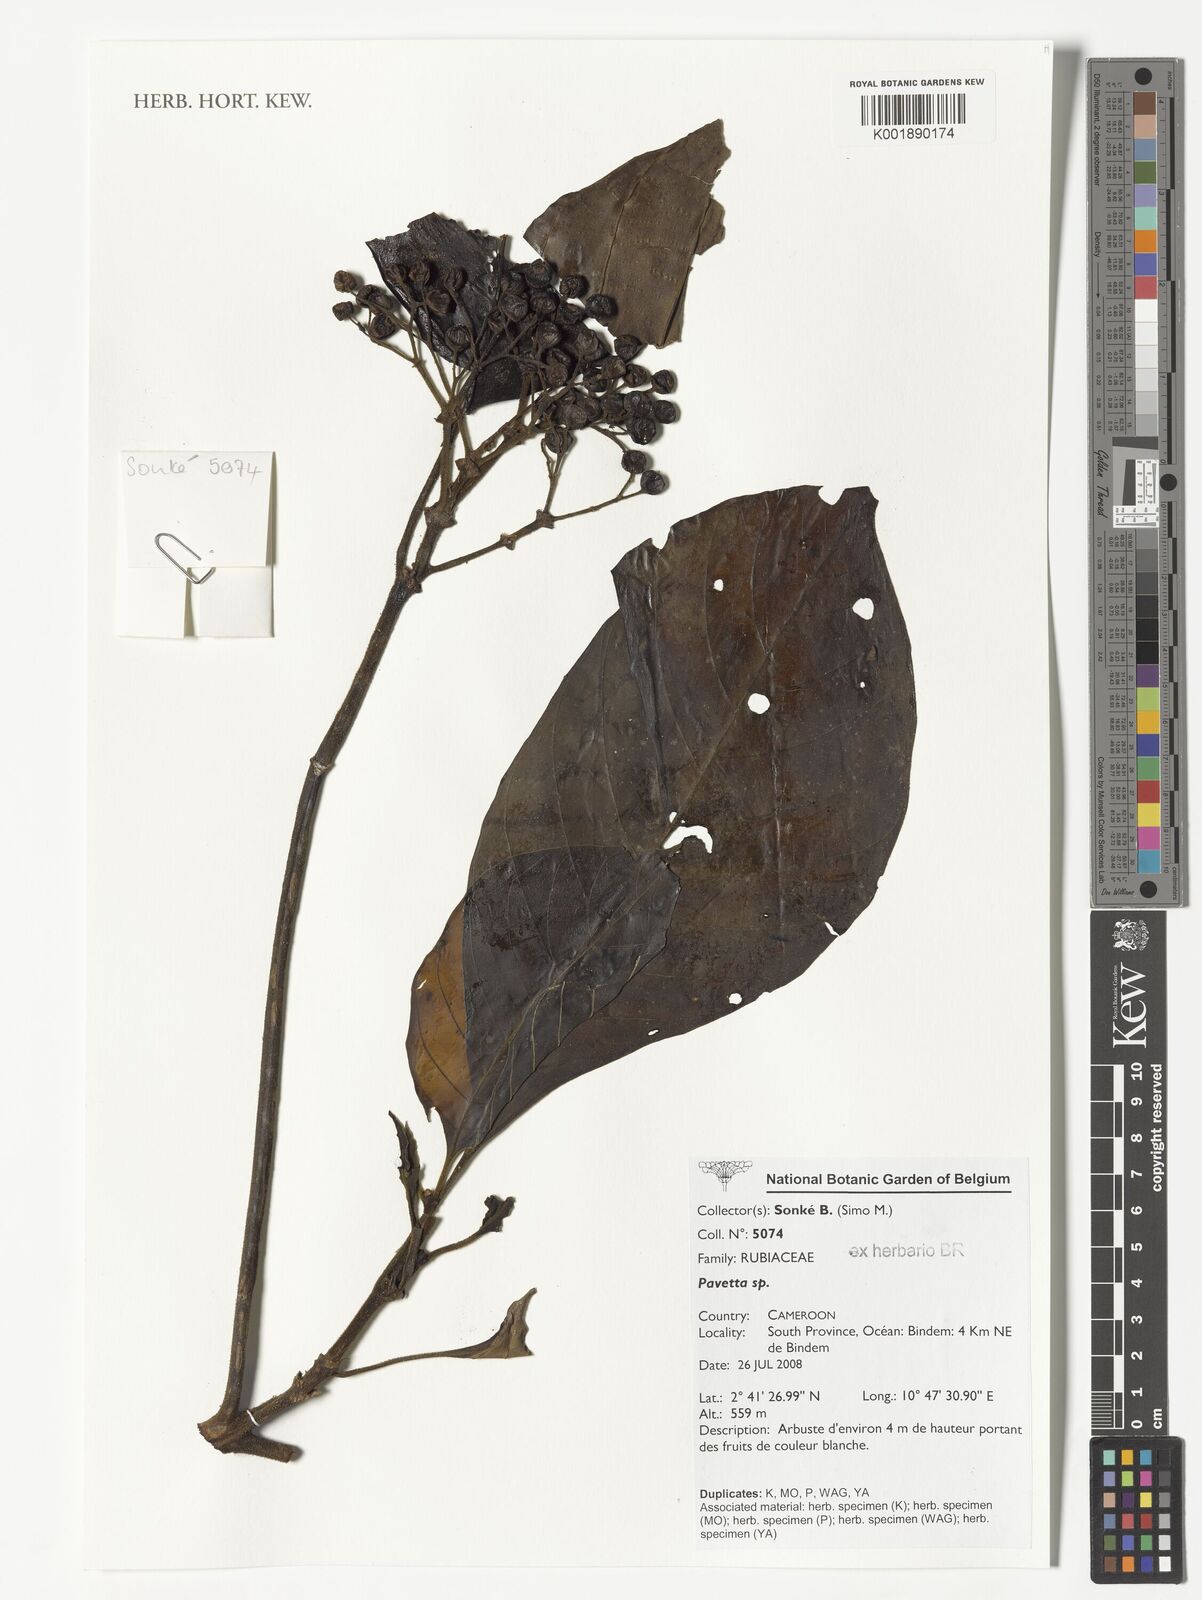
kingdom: Plantae
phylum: Tracheophyta
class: Magnoliopsida
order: Gentianales
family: Rubiaceae
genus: Pavetta
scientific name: Pavetta
